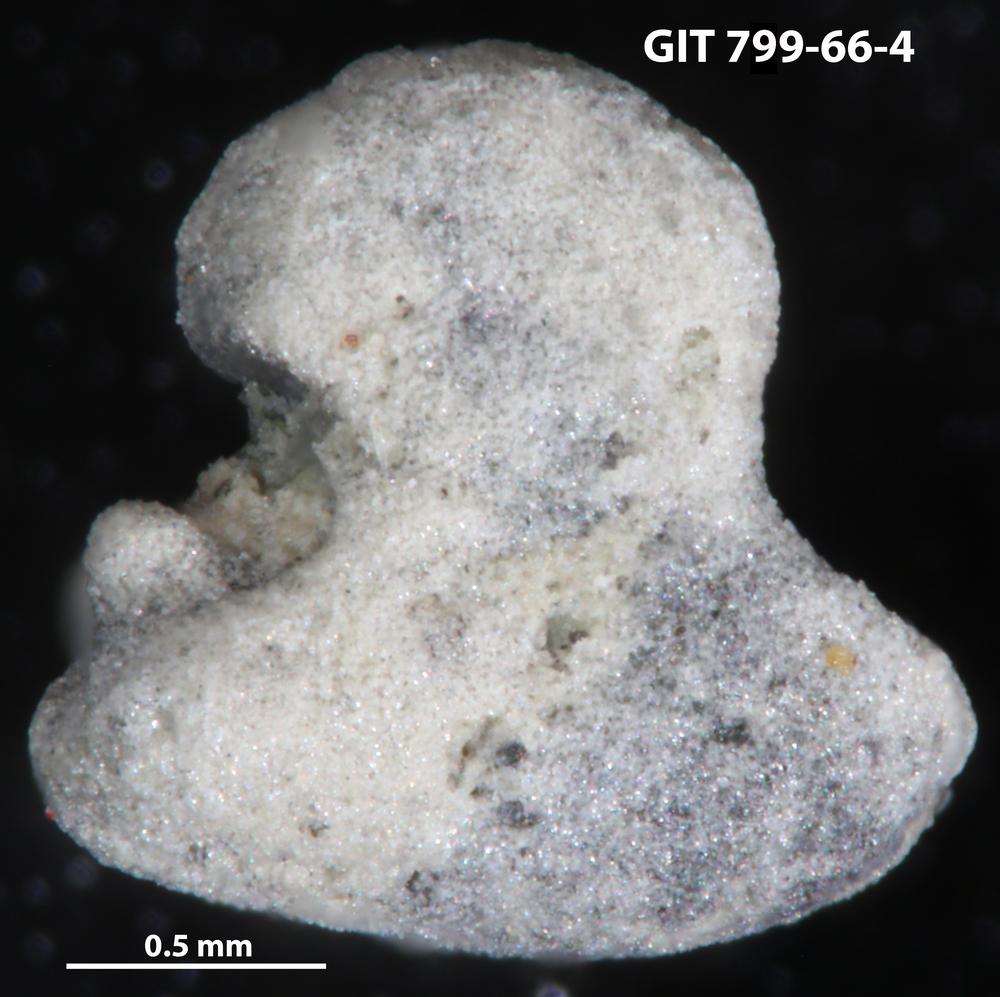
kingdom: Animalia
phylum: Echinodermata
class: Crinoidea
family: Cyclocystoididae
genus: Polytryphocycloides
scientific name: Polytryphocycloides
